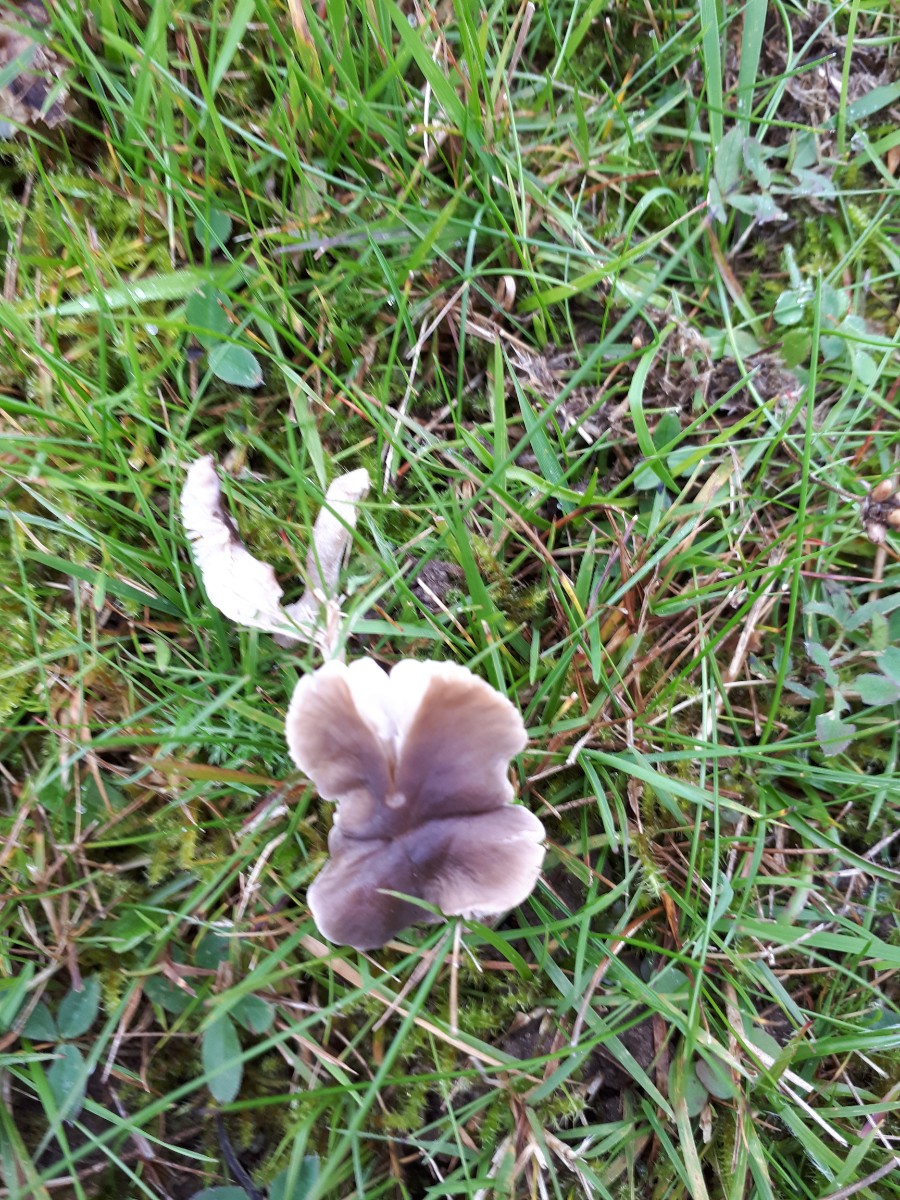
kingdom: Fungi
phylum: Basidiomycota
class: Agaricomycetes
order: Agaricales
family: Tricholomataceae
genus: Dermoloma
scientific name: Dermoloma cuneifolium
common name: eng-nonnehat
